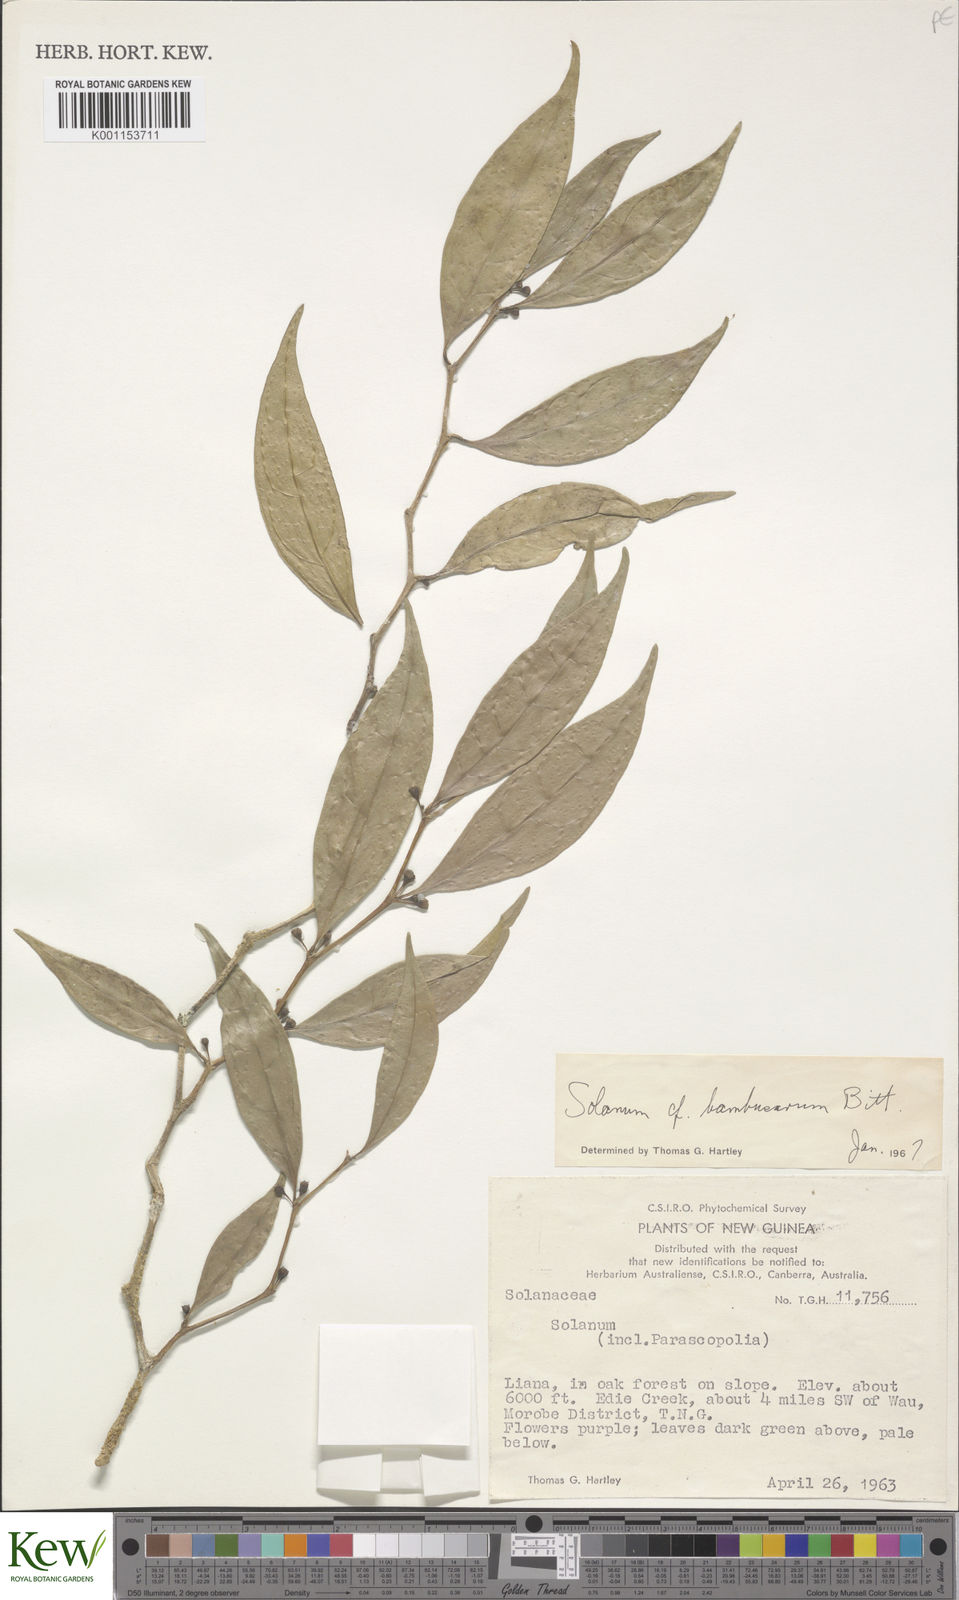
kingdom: Plantae
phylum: Tracheophyta
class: Magnoliopsida
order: Solanales
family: Solanaceae
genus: Lycianthes
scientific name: Lycianthes bambusarum
